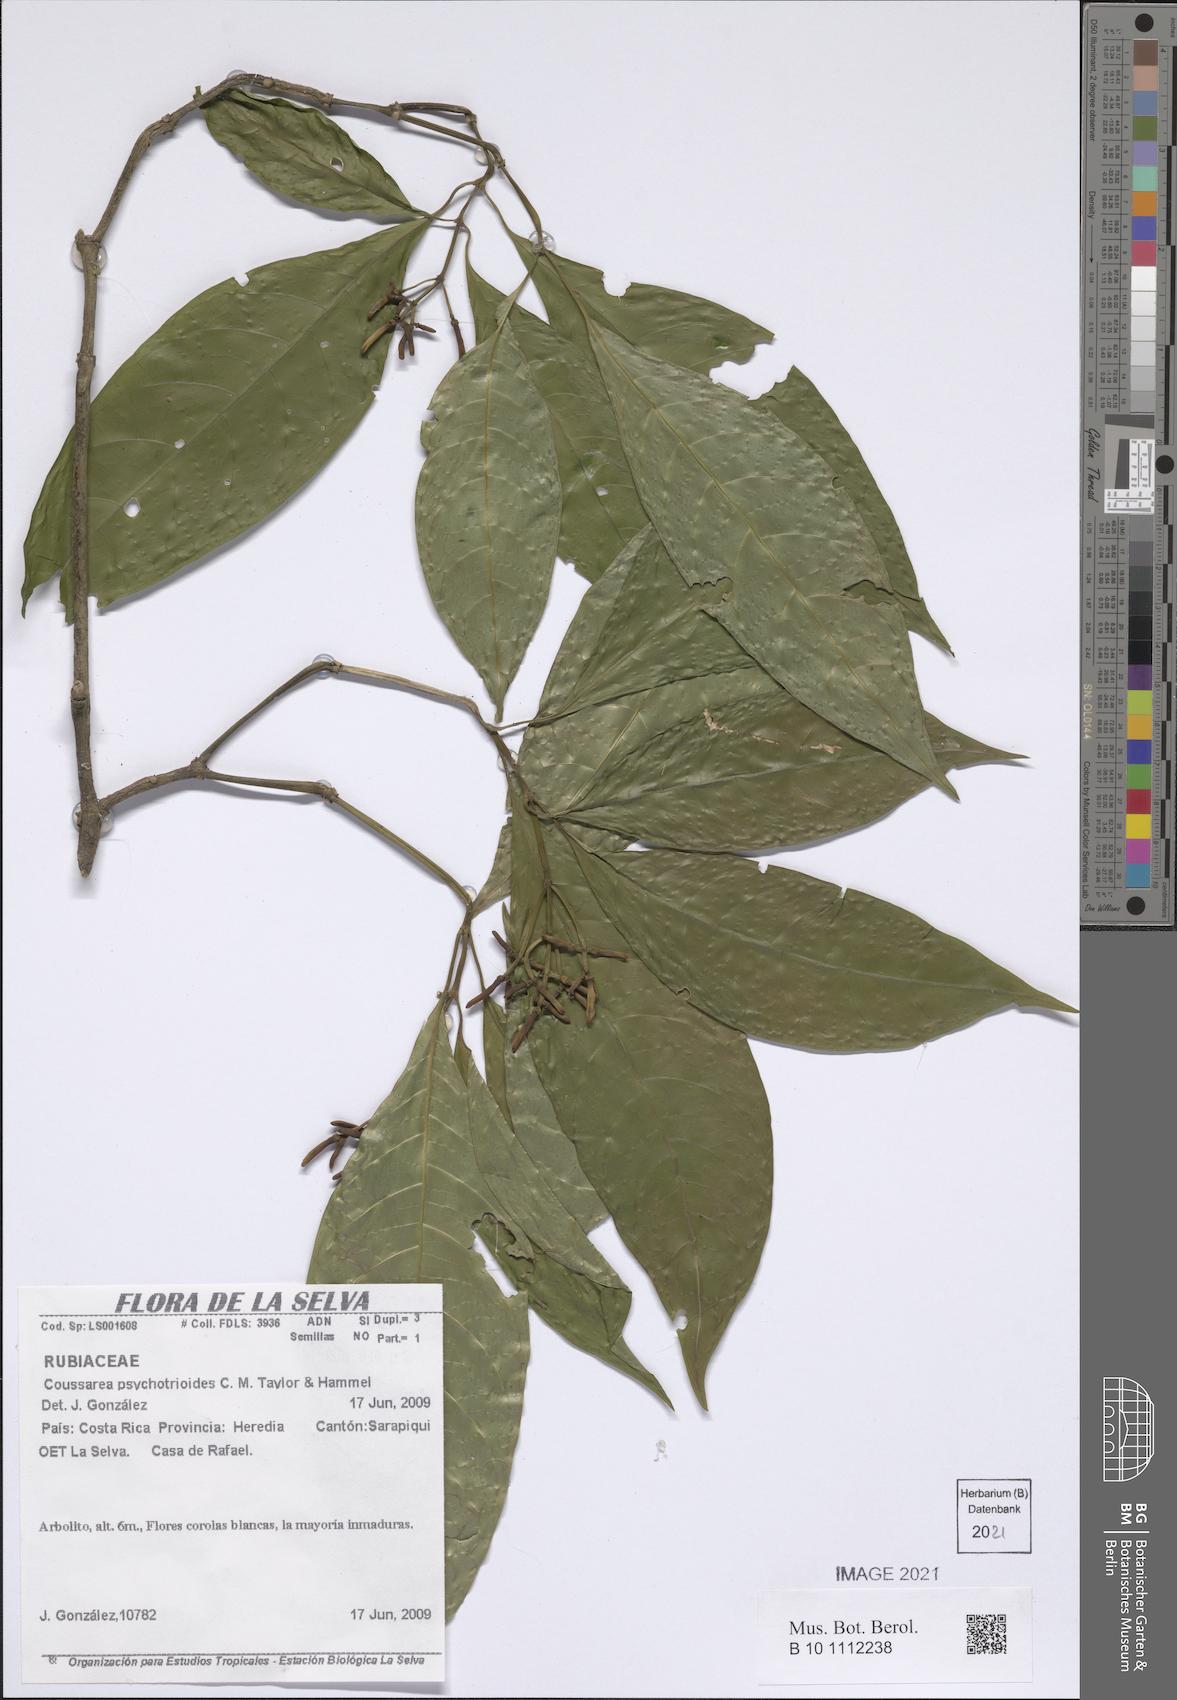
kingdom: Plantae
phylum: Tracheophyta
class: Magnoliopsida
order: Gentianales
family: Rubiaceae
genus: Palicourea
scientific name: Palicourea psychotrioides
